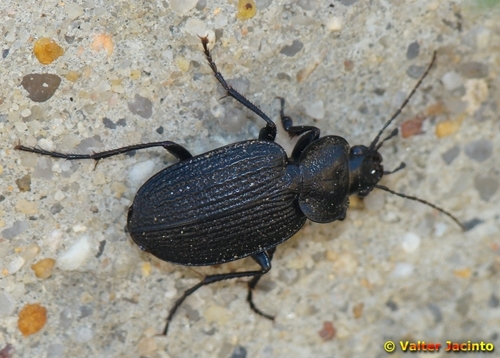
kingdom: Animalia
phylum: Arthropoda
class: Insecta
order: Coleoptera
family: Carabidae
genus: Licinus
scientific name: Licinus punctatulus
